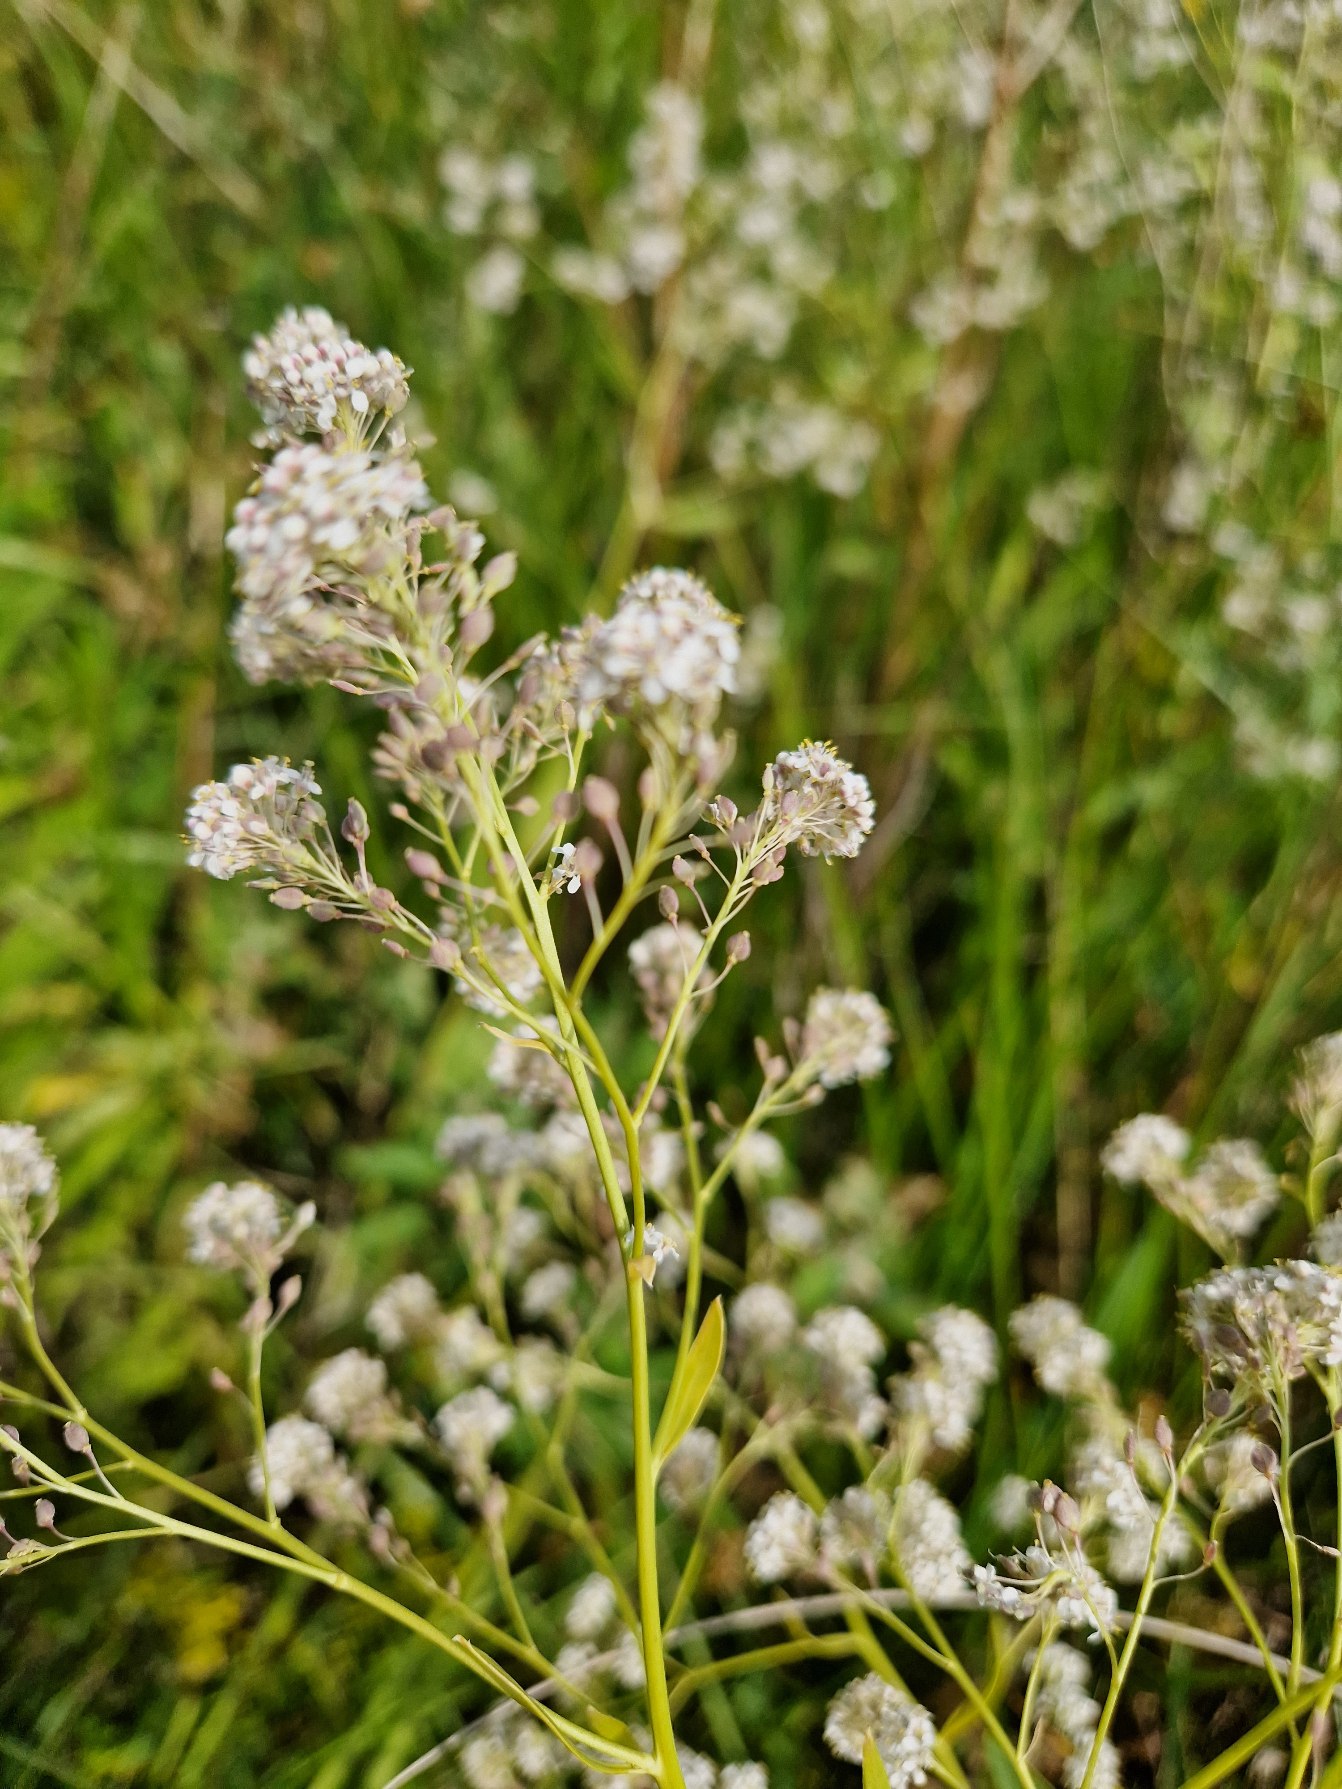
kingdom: Plantae
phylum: Tracheophyta
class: Magnoliopsida
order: Brassicales
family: Brassicaceae
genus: Lepidium
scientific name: Lepidium latifolium
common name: Strand-karse
